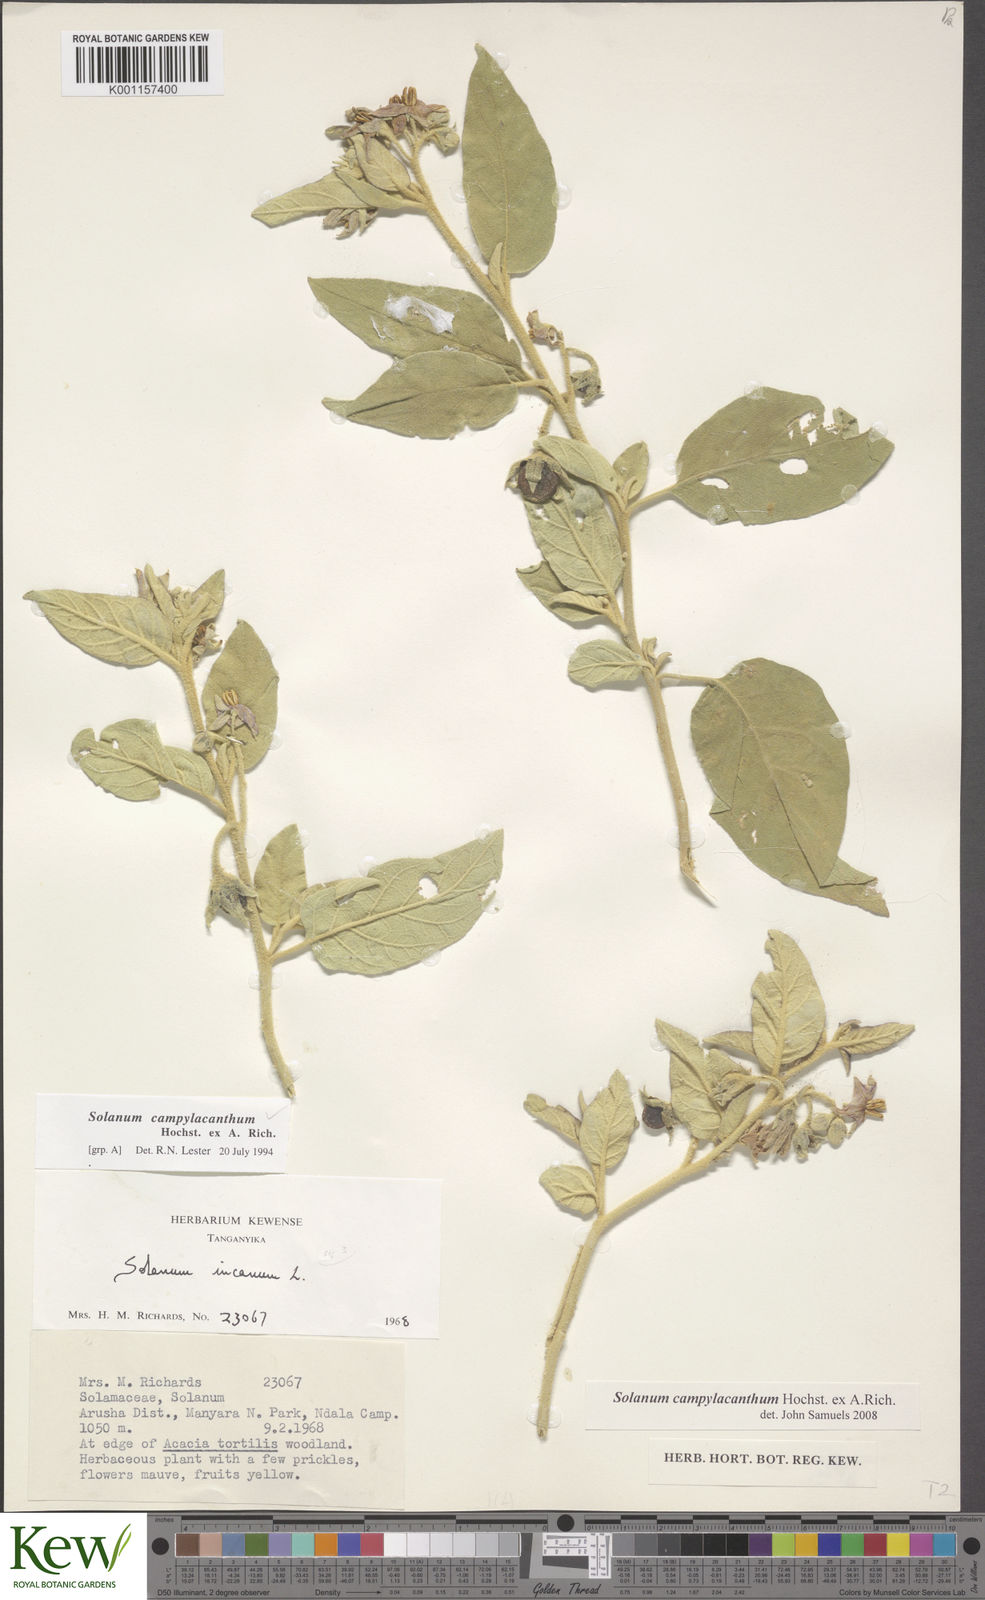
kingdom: Plantae
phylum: Tracheophyta
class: Magnoliopsida
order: Solanales
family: Solanaceae
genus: Solanum
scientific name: Solanum campylacanthum
